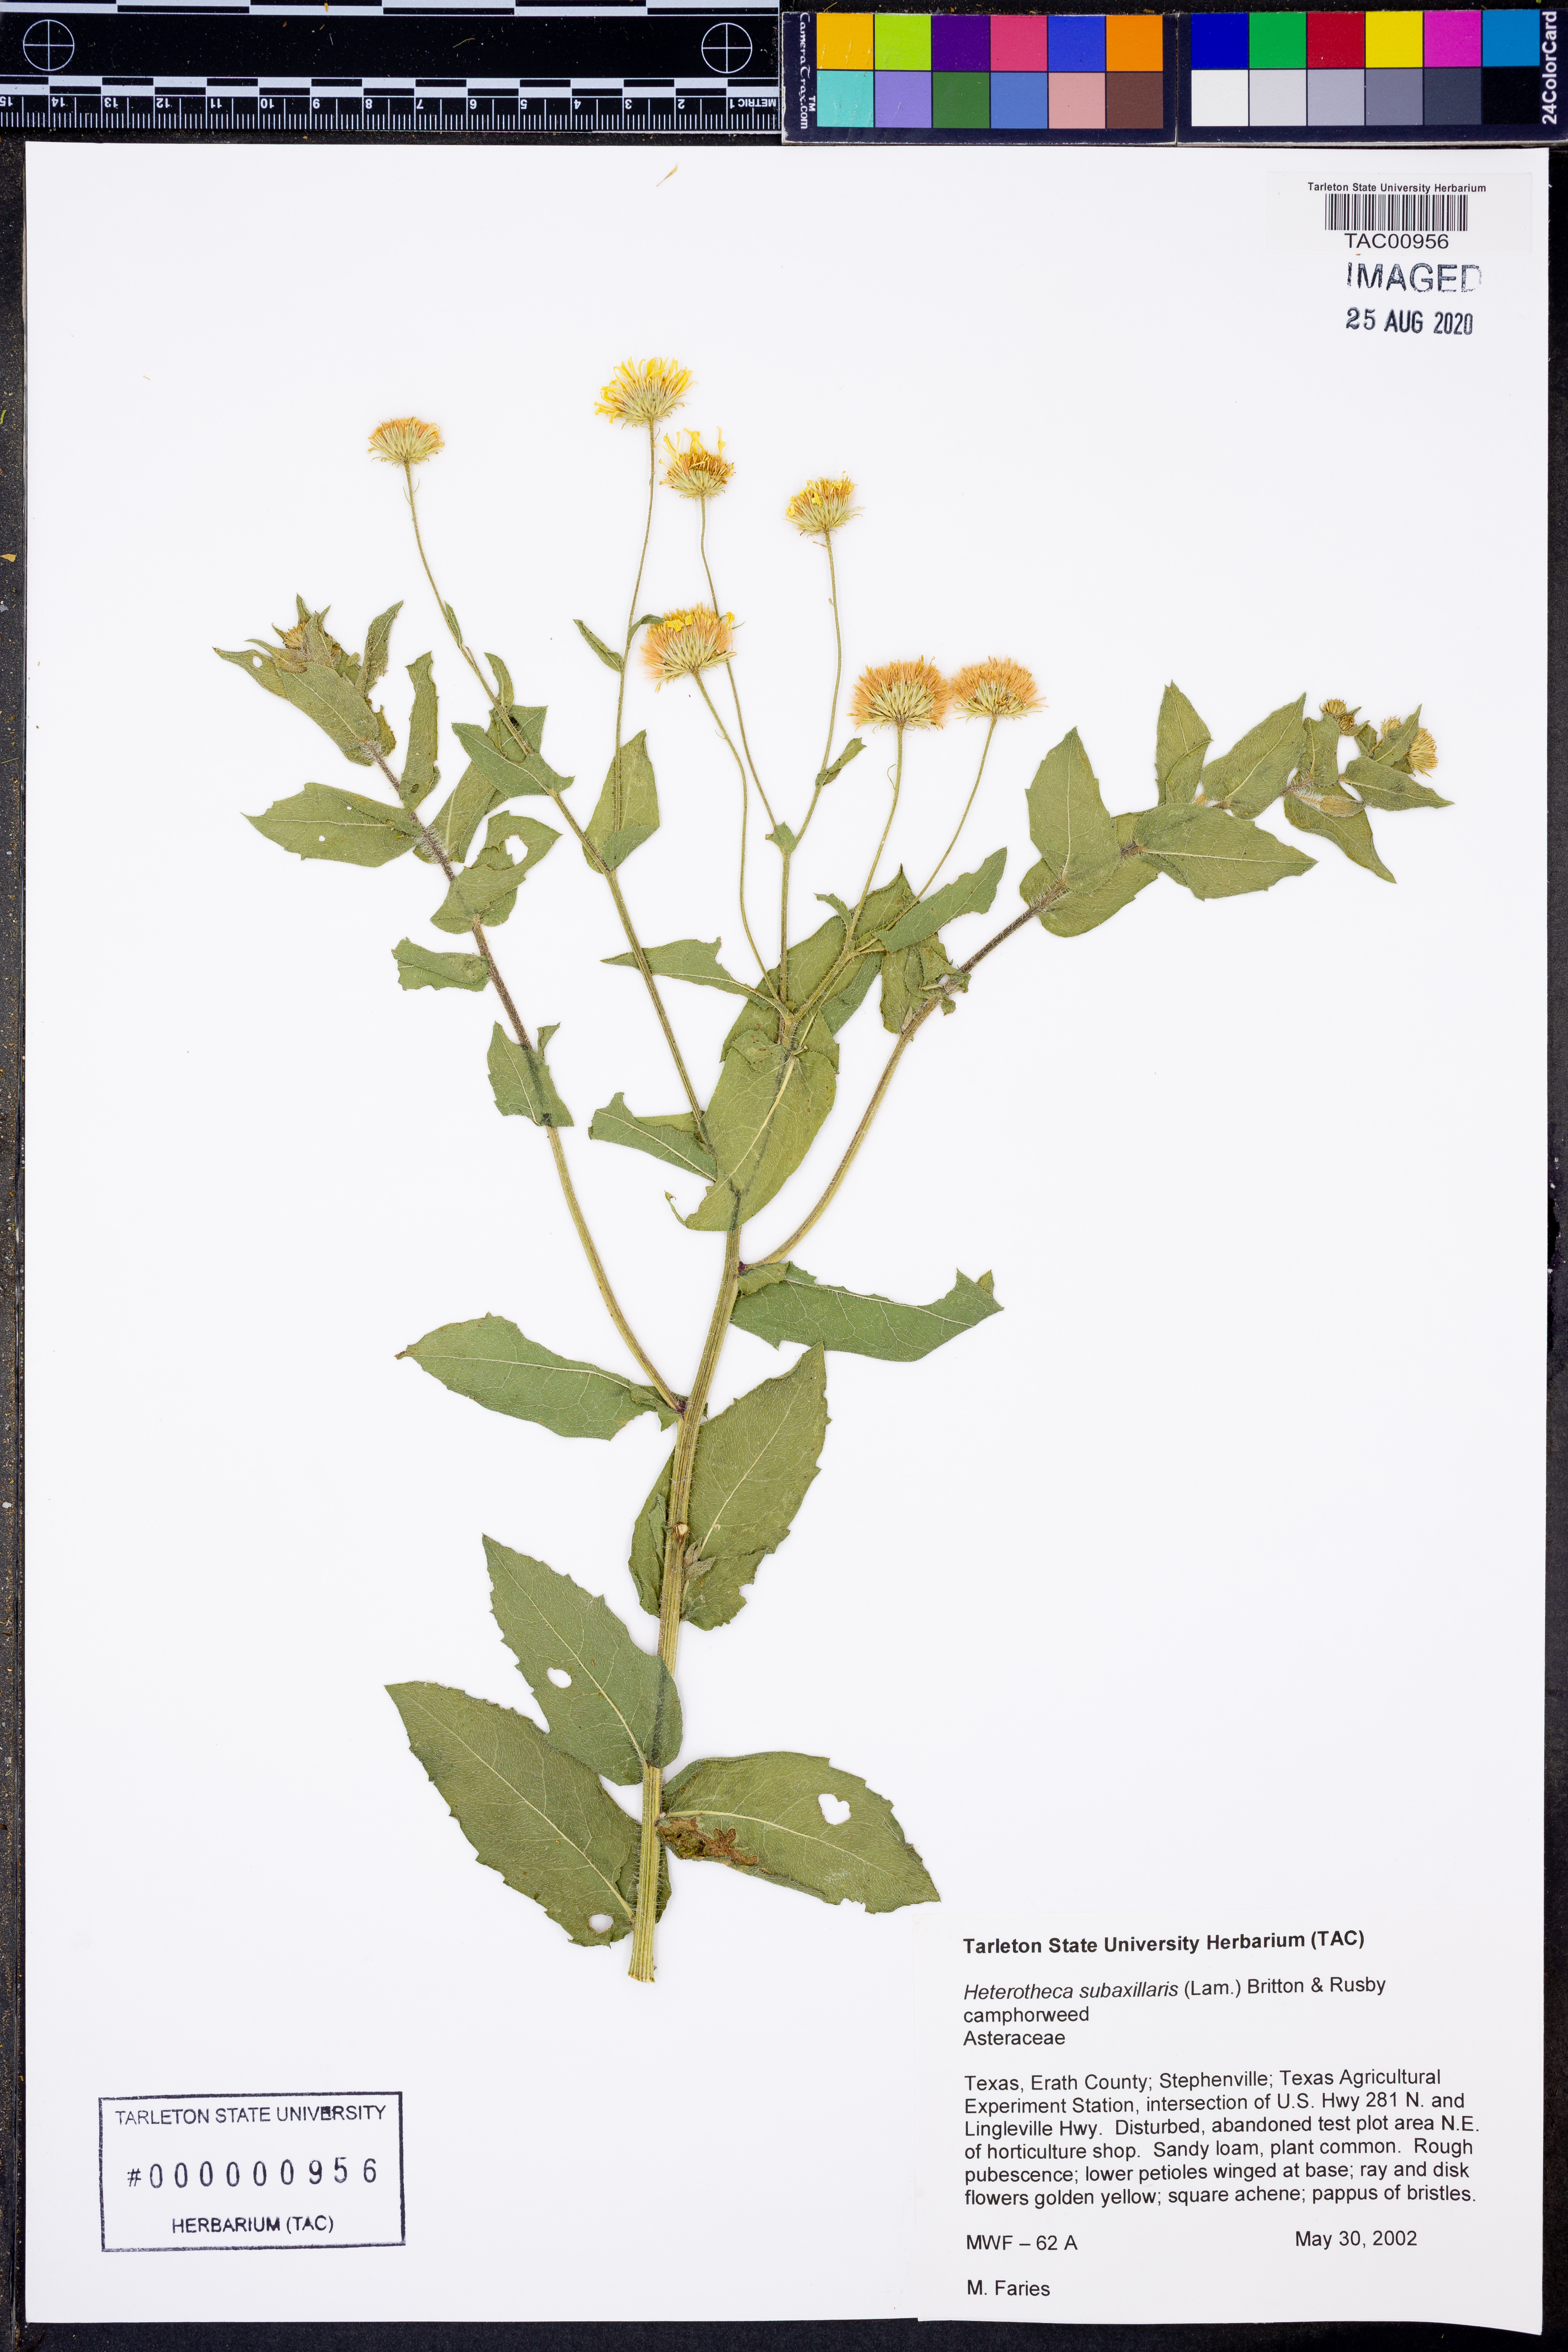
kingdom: Plantae
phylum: Tracheophyta
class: Magnoliopsida
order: Asterales
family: Asteraceae
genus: Heterotheca
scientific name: Heterotheca subaxillaris
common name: Camphorweed
